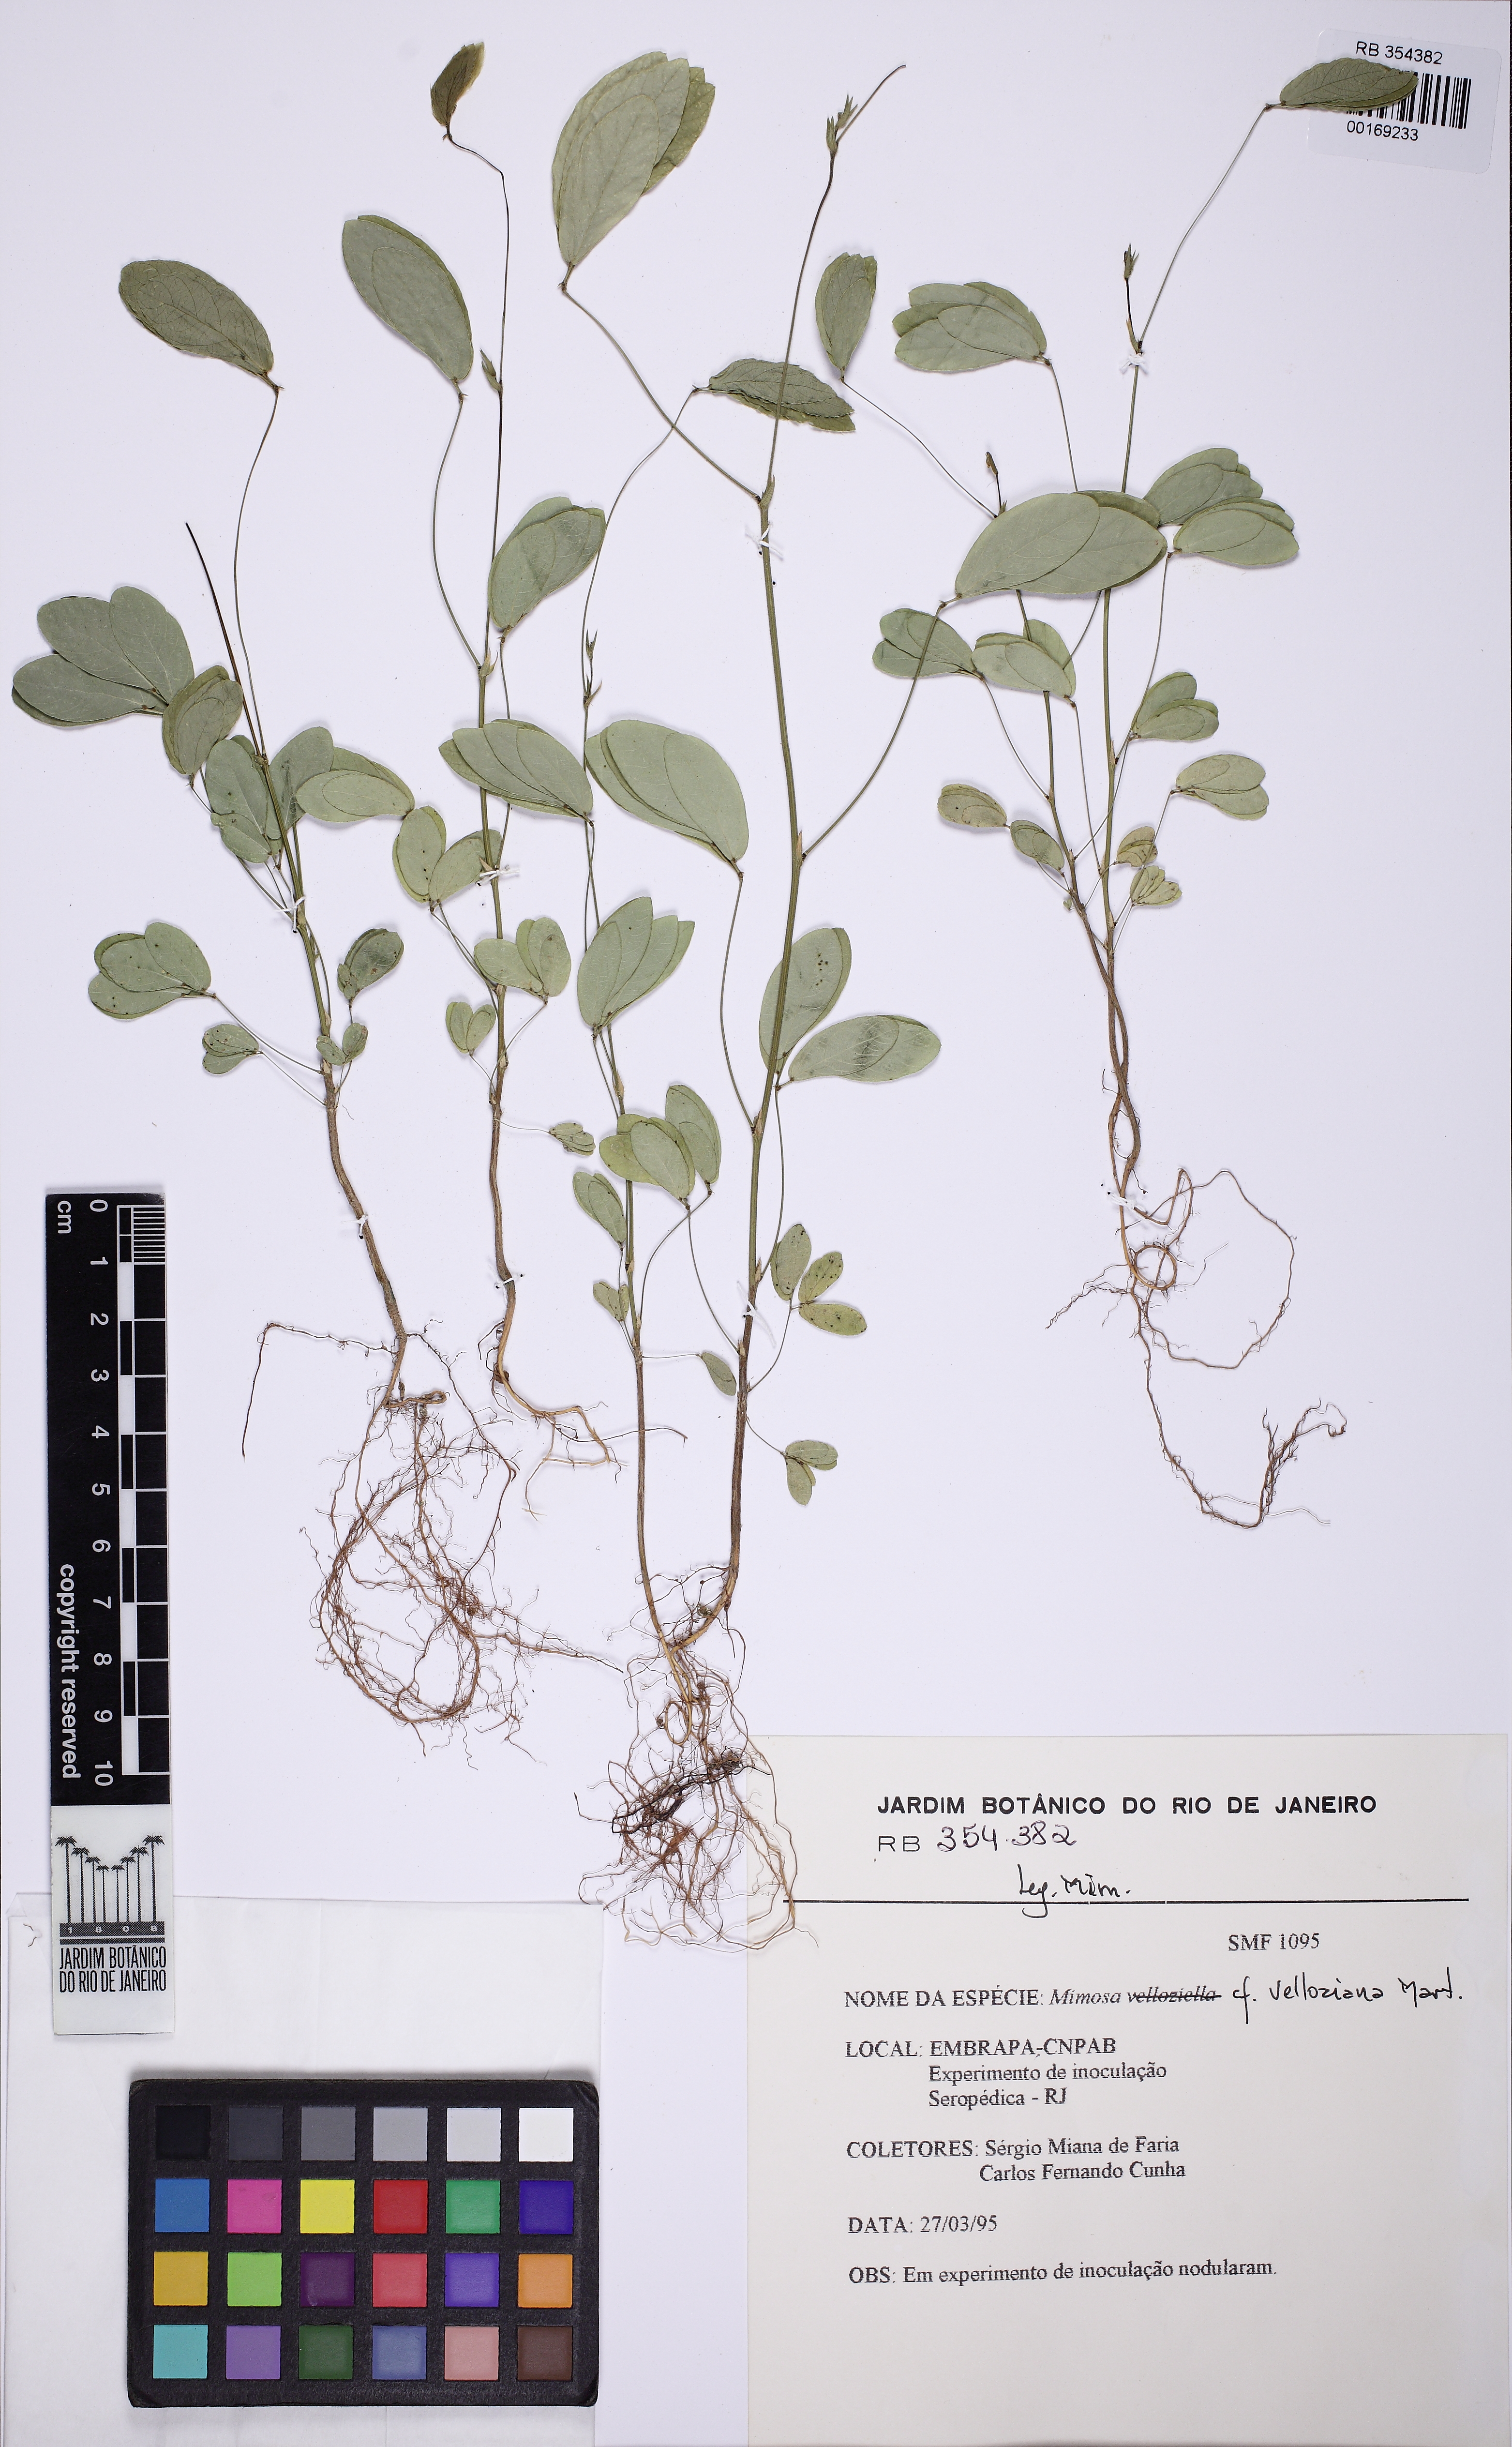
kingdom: Plantae
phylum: Tracheophyta
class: Magnoliopsida
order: Fabales
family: Fabaceae
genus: Mimosa
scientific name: Mimosa velloziana
